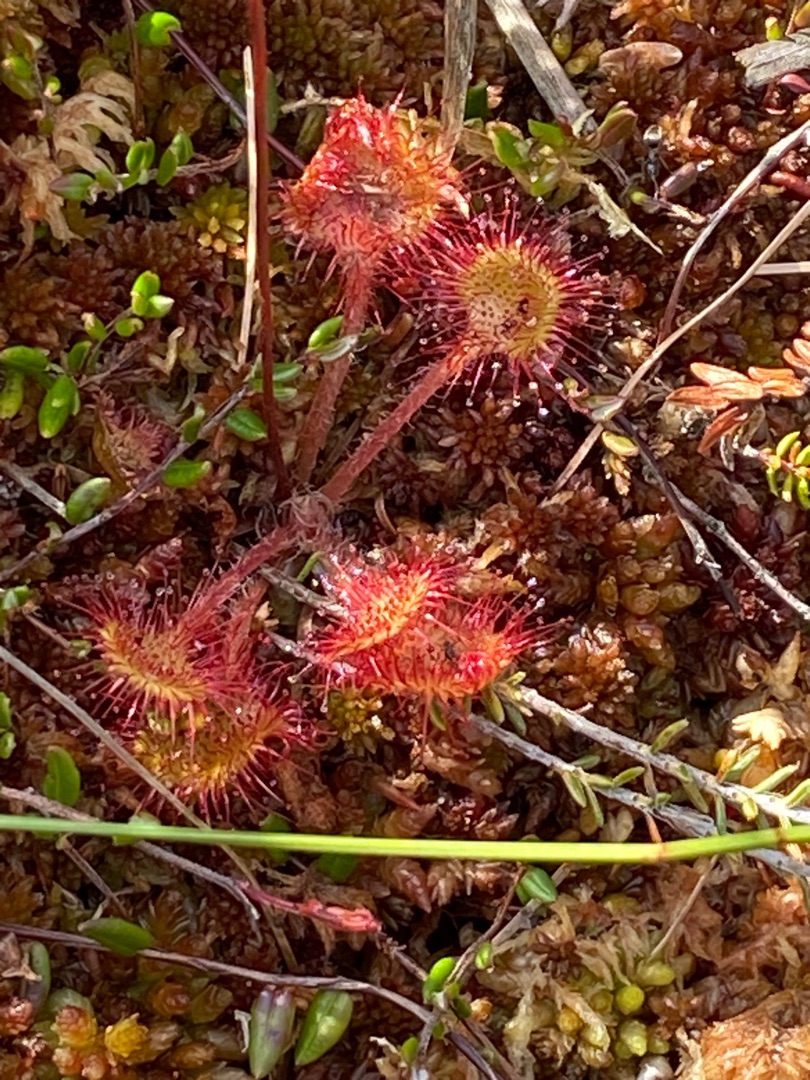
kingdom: Plantae
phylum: Tracheophyta
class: Magnoliopsida
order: Caryophyllales
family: Droseraceae
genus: Drosera
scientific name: Drosera rotundifolia
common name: Rundbladet soldug
